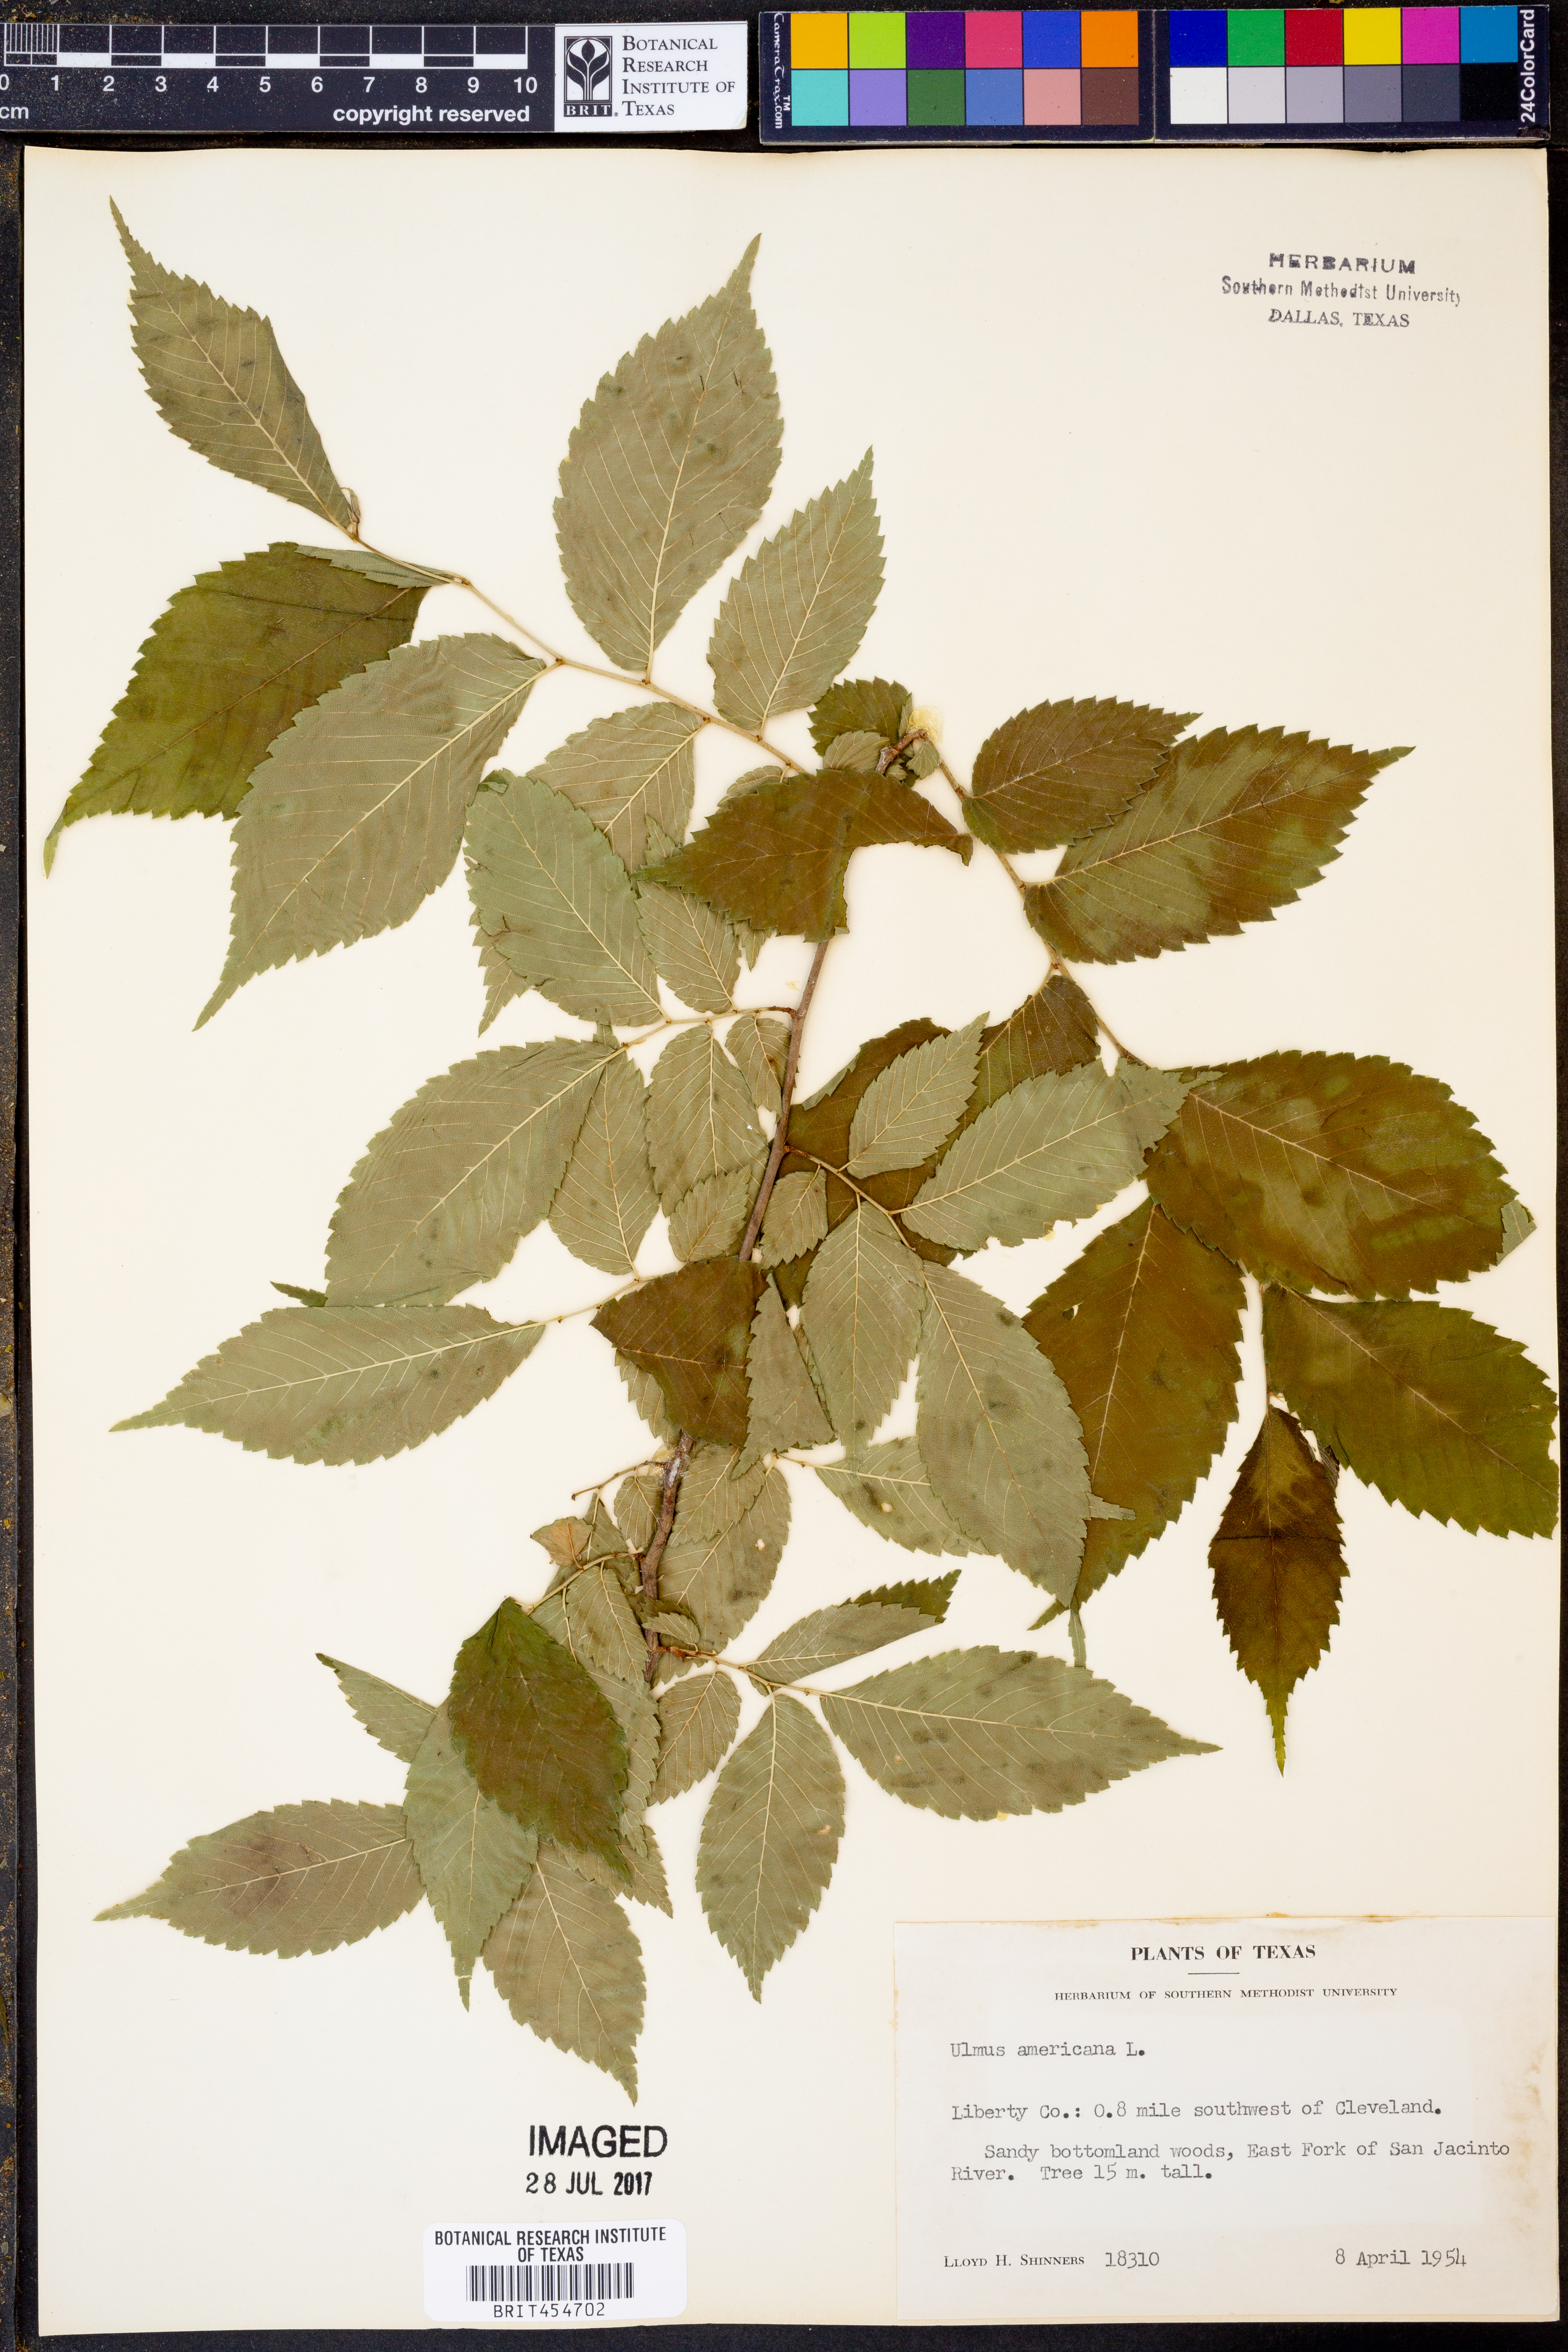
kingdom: Plantae
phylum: Tracheophyta
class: Magnoliopsida
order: Rosales
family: Ulmaceae
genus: Ulmus
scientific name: Ulmus americana
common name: American elm
